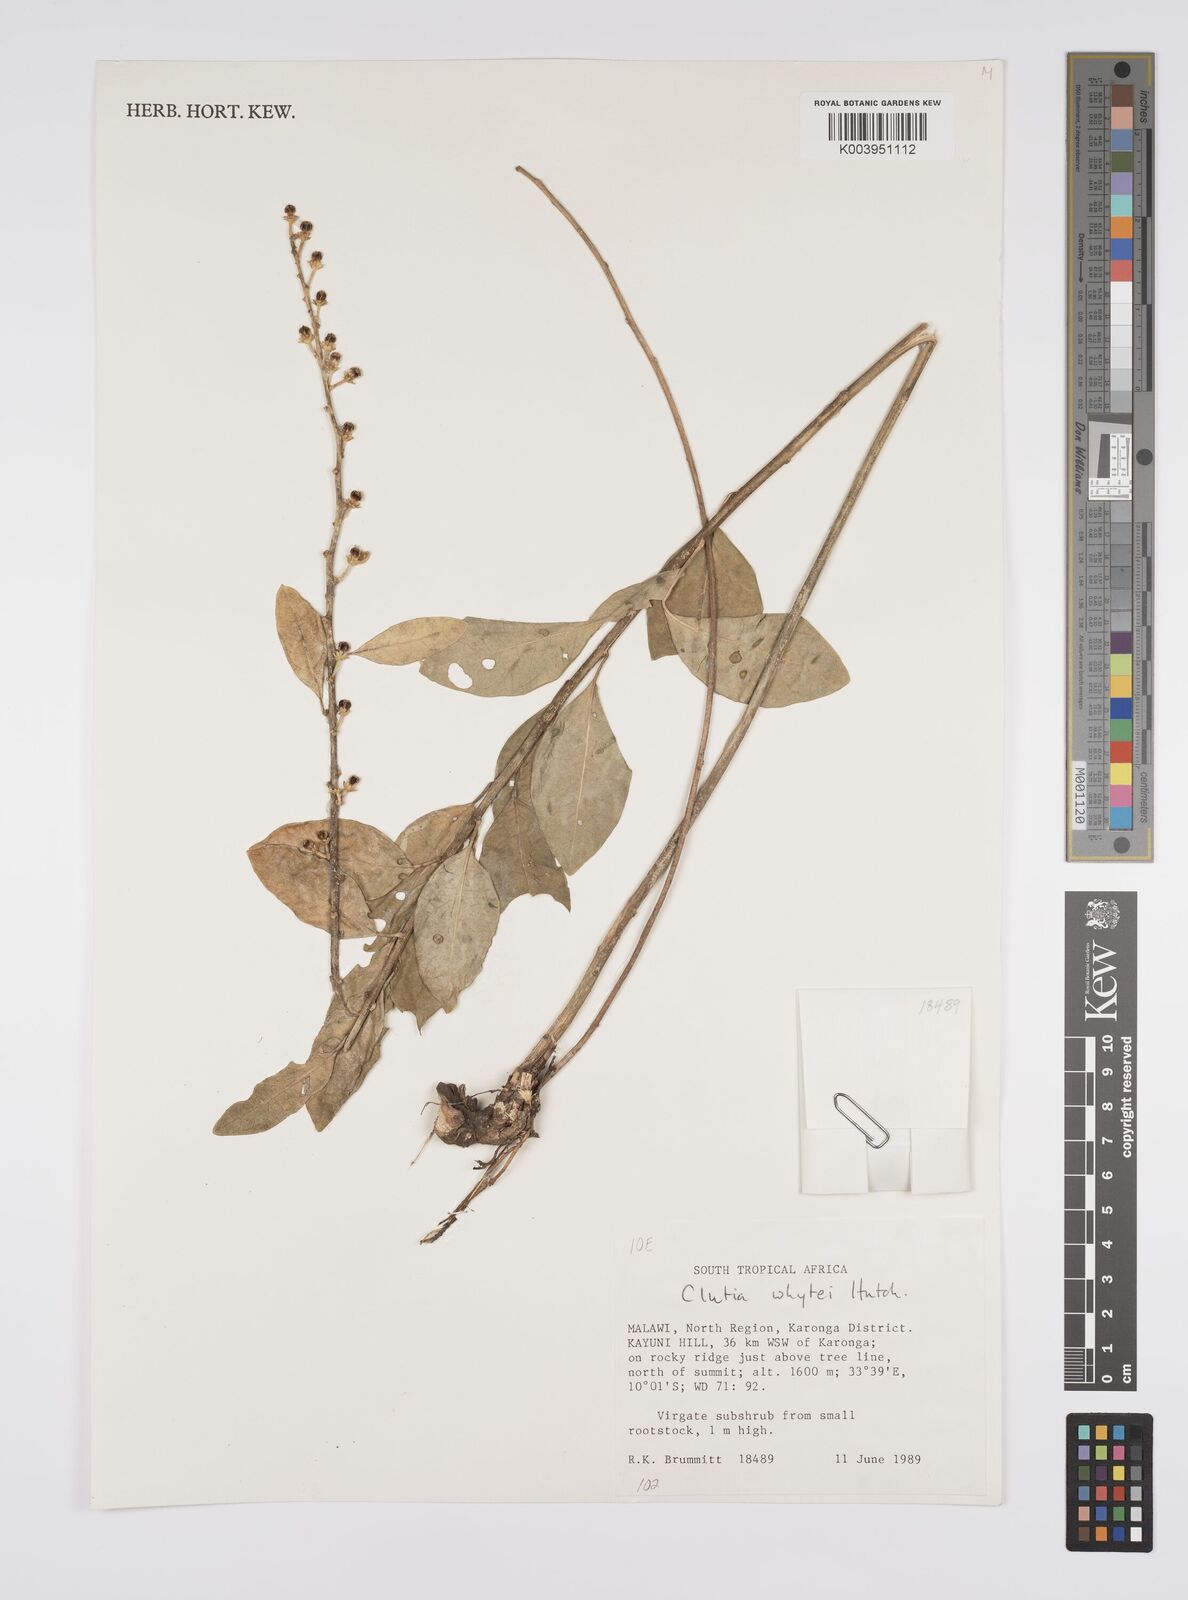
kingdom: Plantae
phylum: Tracheophyta
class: Magnoliopsida
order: Malpighiales
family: Peraceae
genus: Clutia
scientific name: Clutia
